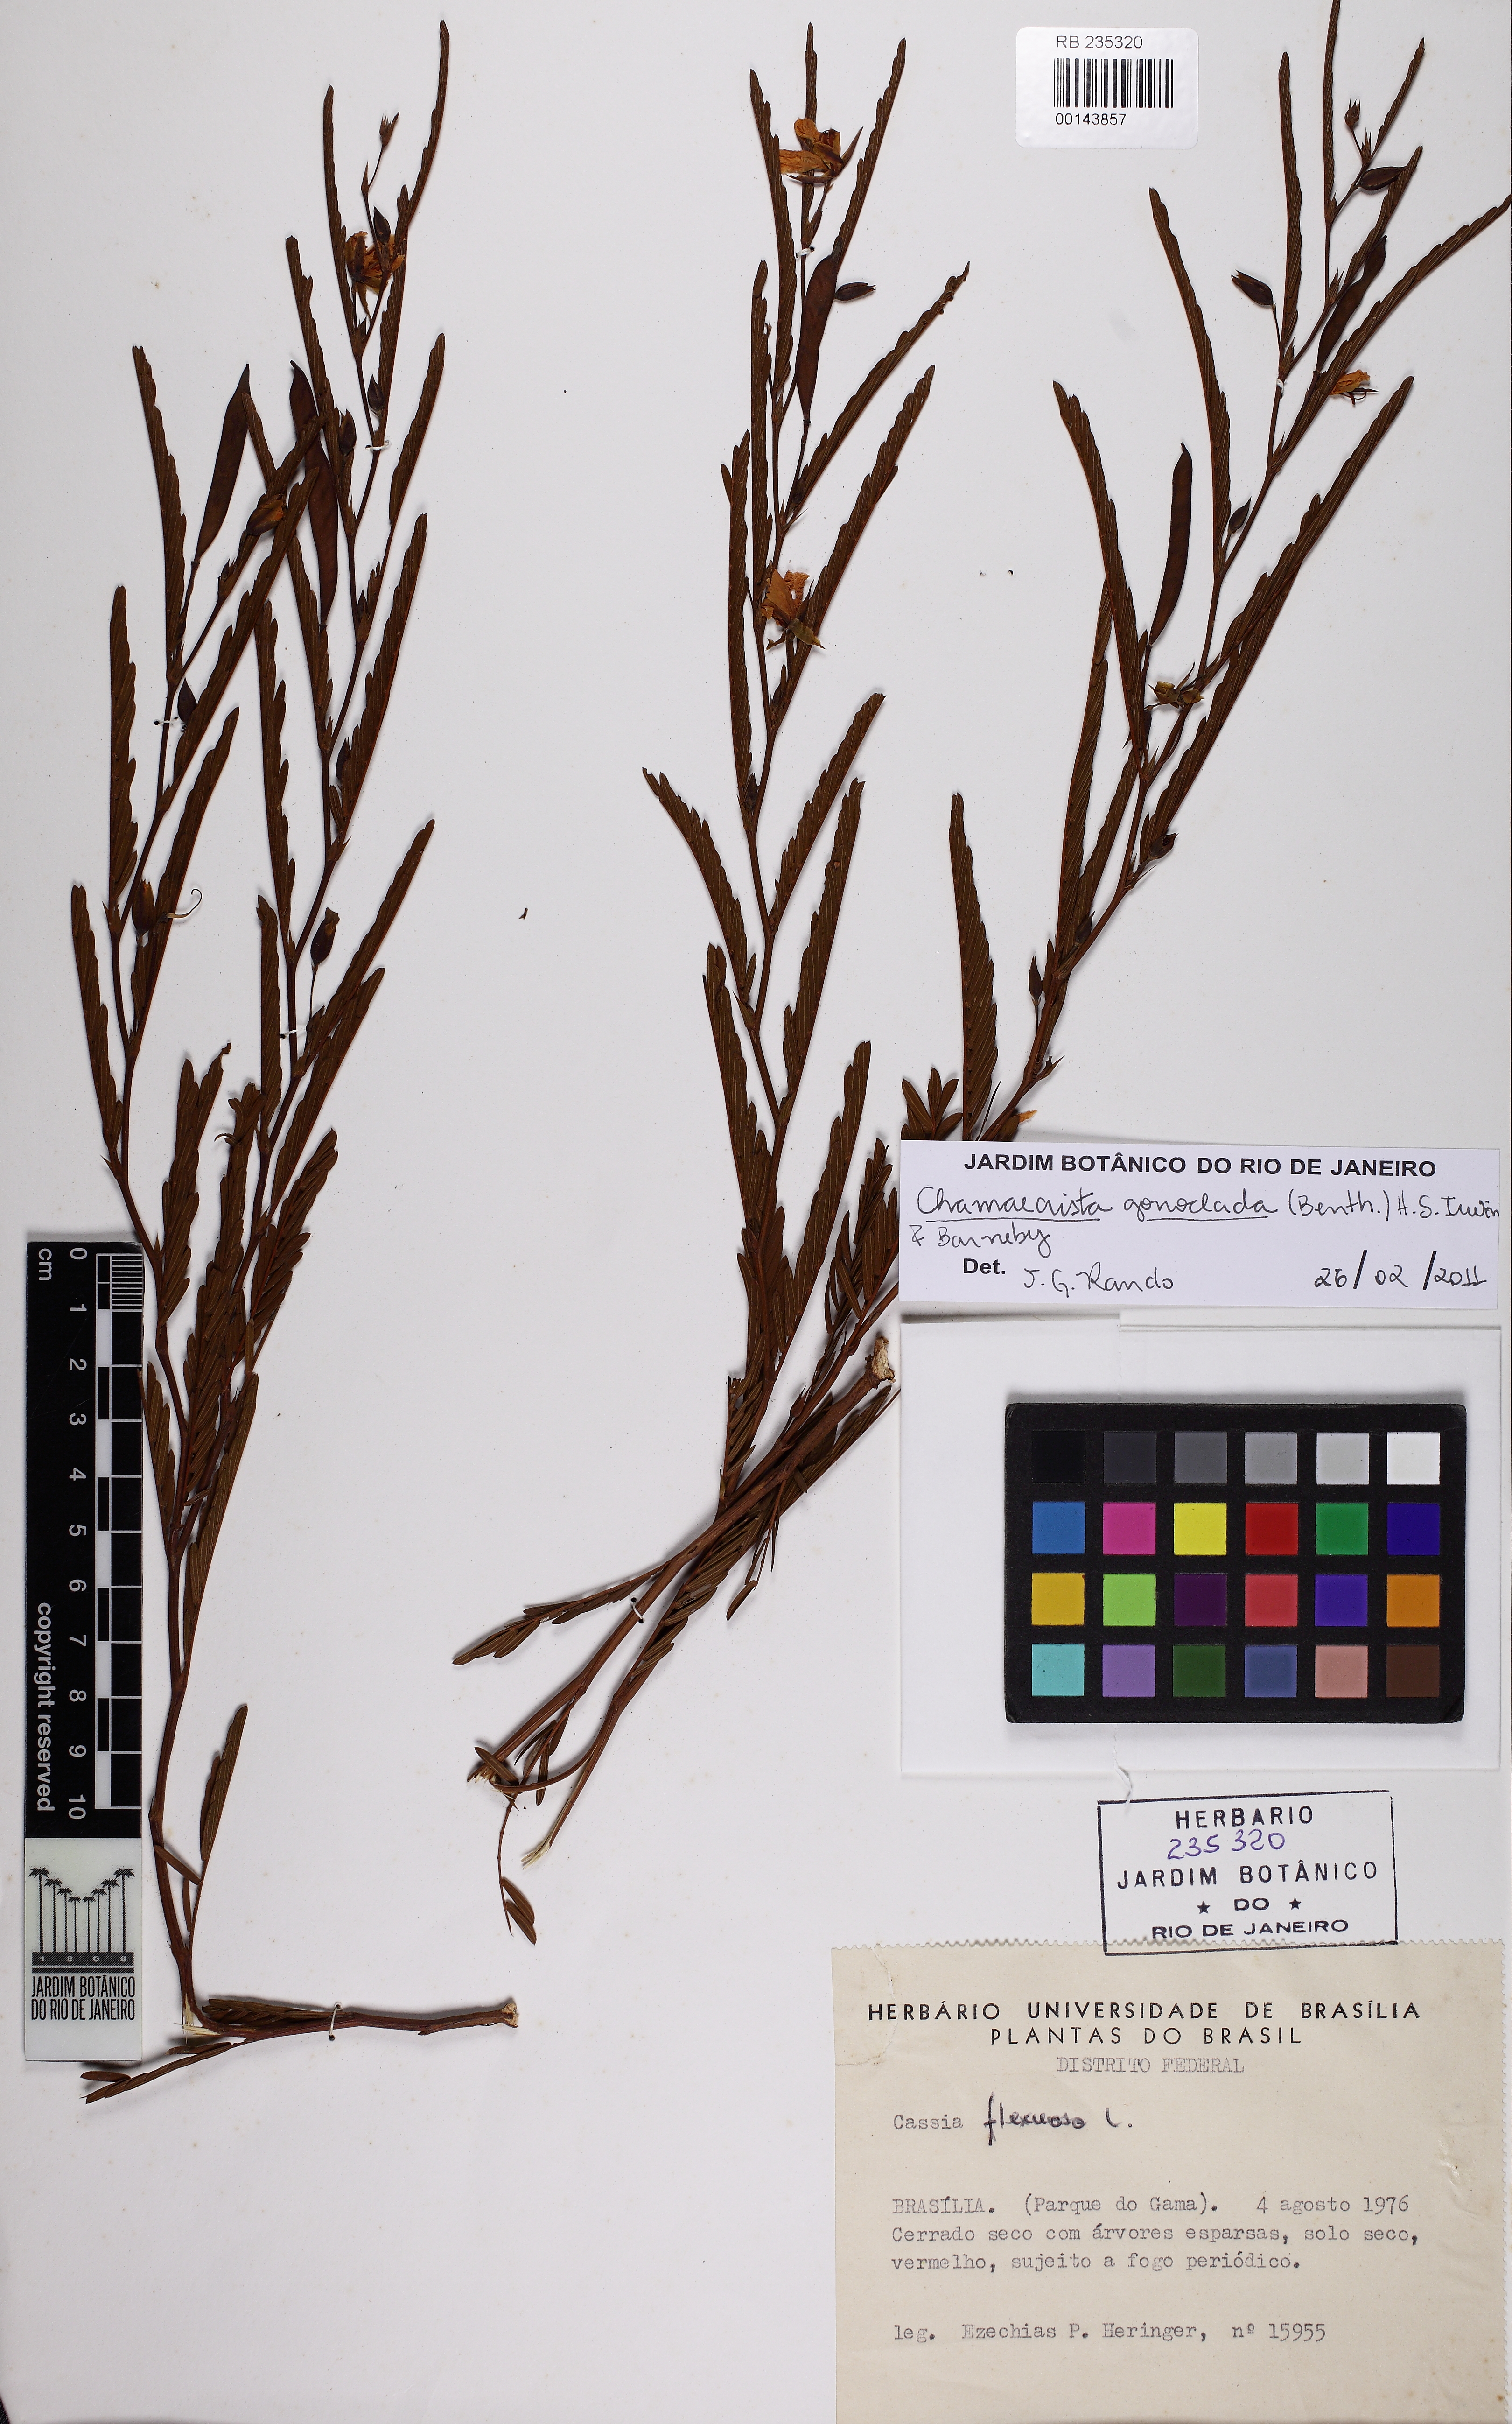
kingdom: Plantae
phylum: Tracheophyta
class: Magnoliopsida
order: Fabales
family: Fabaceae
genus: Chamaecrista
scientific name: Chamaecrista parvistipula
